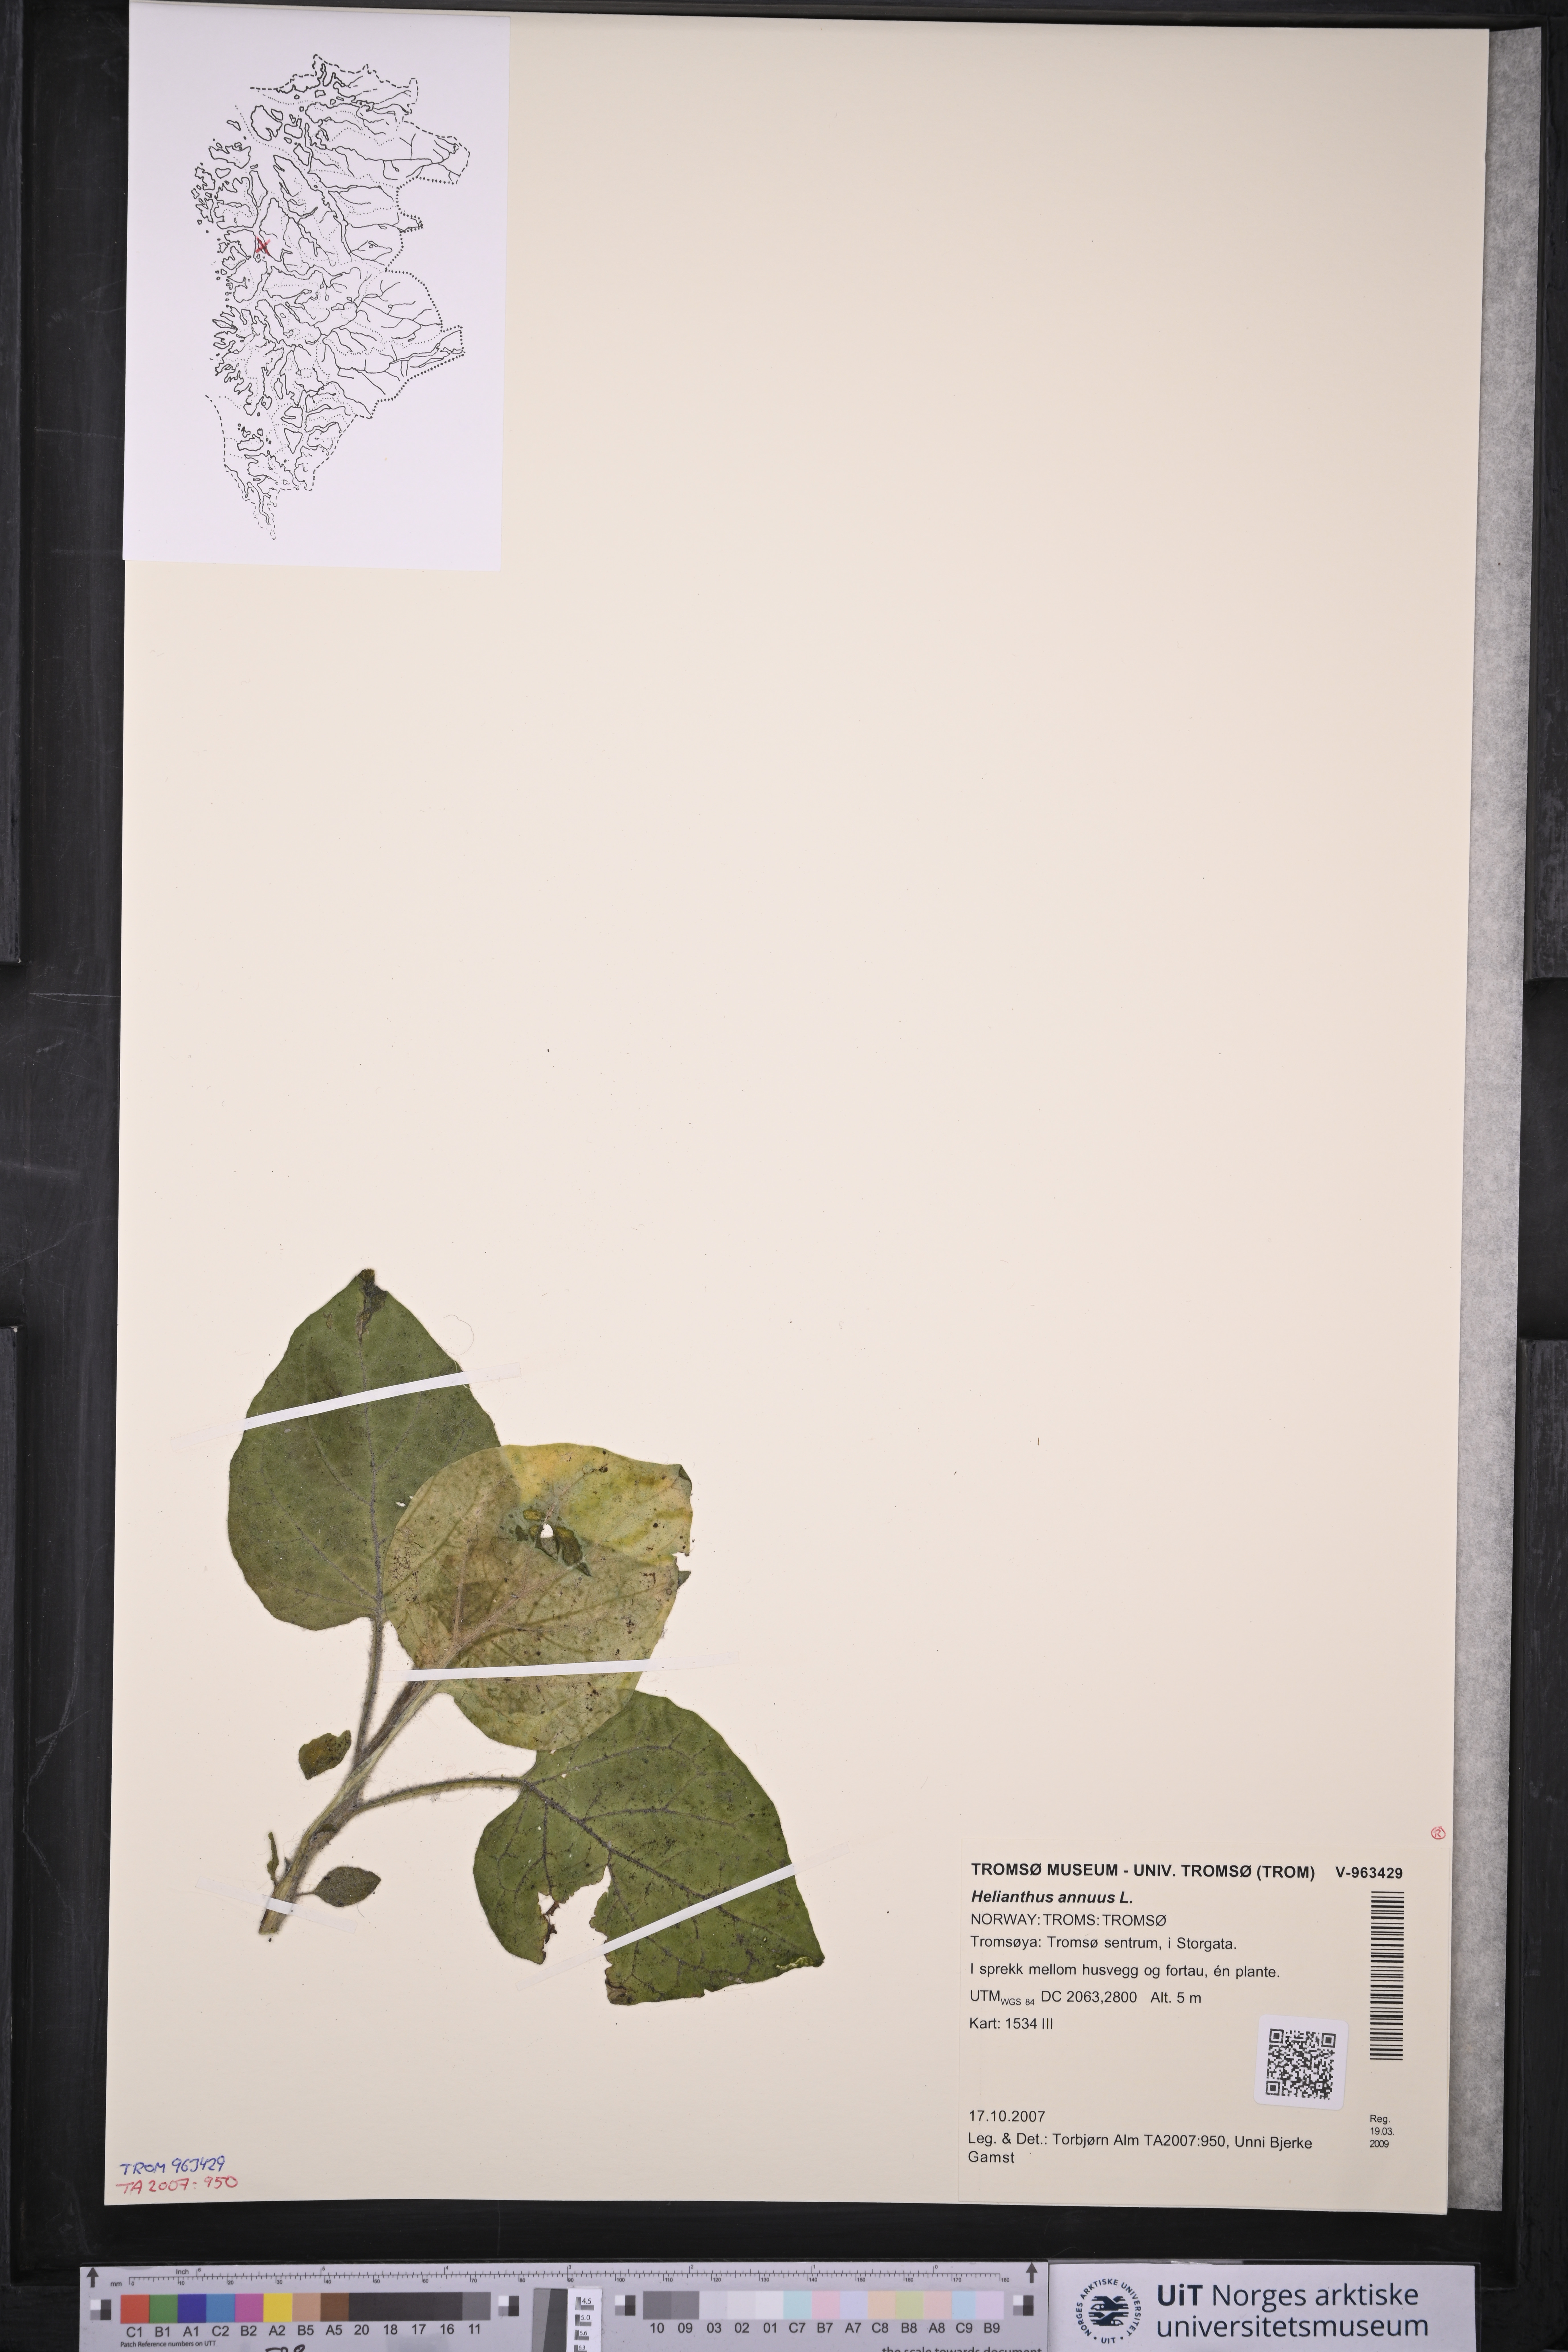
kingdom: Plantae
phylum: Tracheophyta
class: Magnoliopsida
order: Asterales
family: Asteraceae
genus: Helianthus
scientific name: Helianthus annuus
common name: Sunflower
